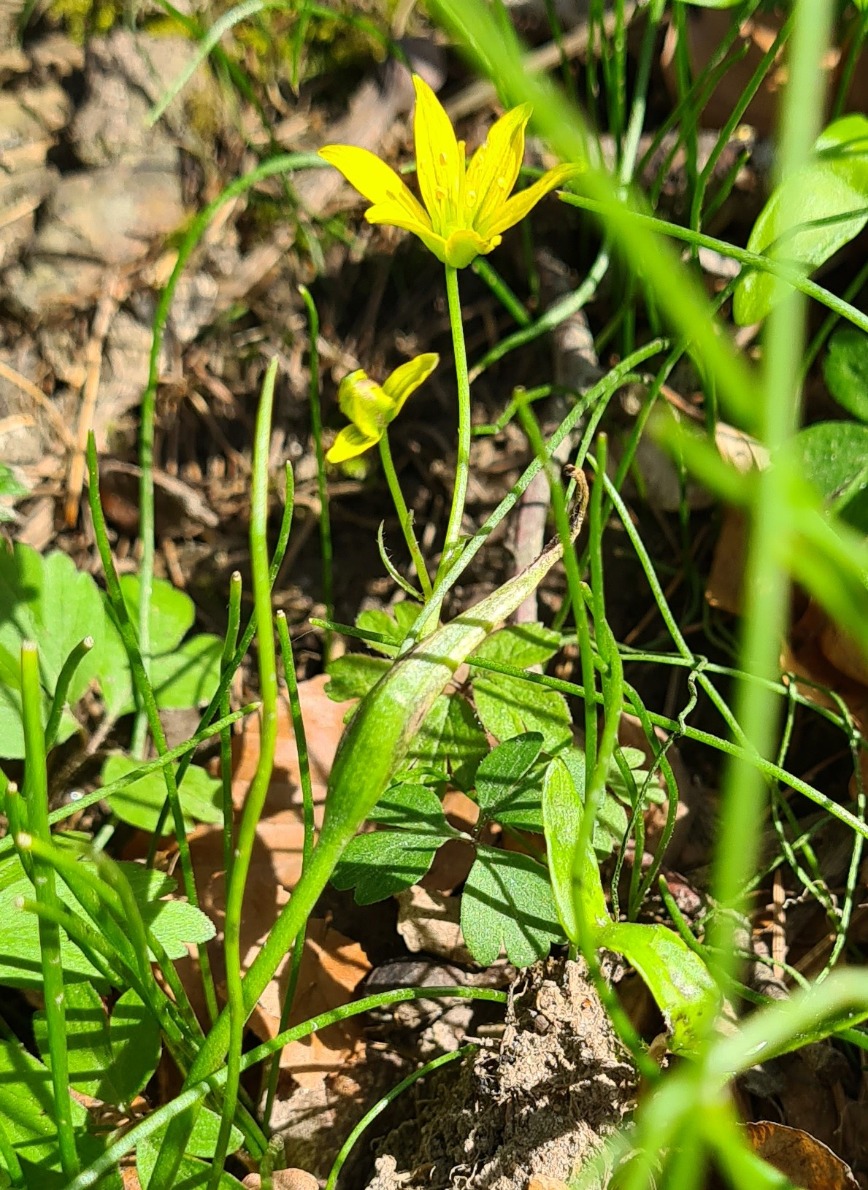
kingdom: Plantae
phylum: Tracheophyta
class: Liliopsida
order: Liliales
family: Liliaceae
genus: Gagea
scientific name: Gagea spathacea
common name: Hylster-guldstjerne
